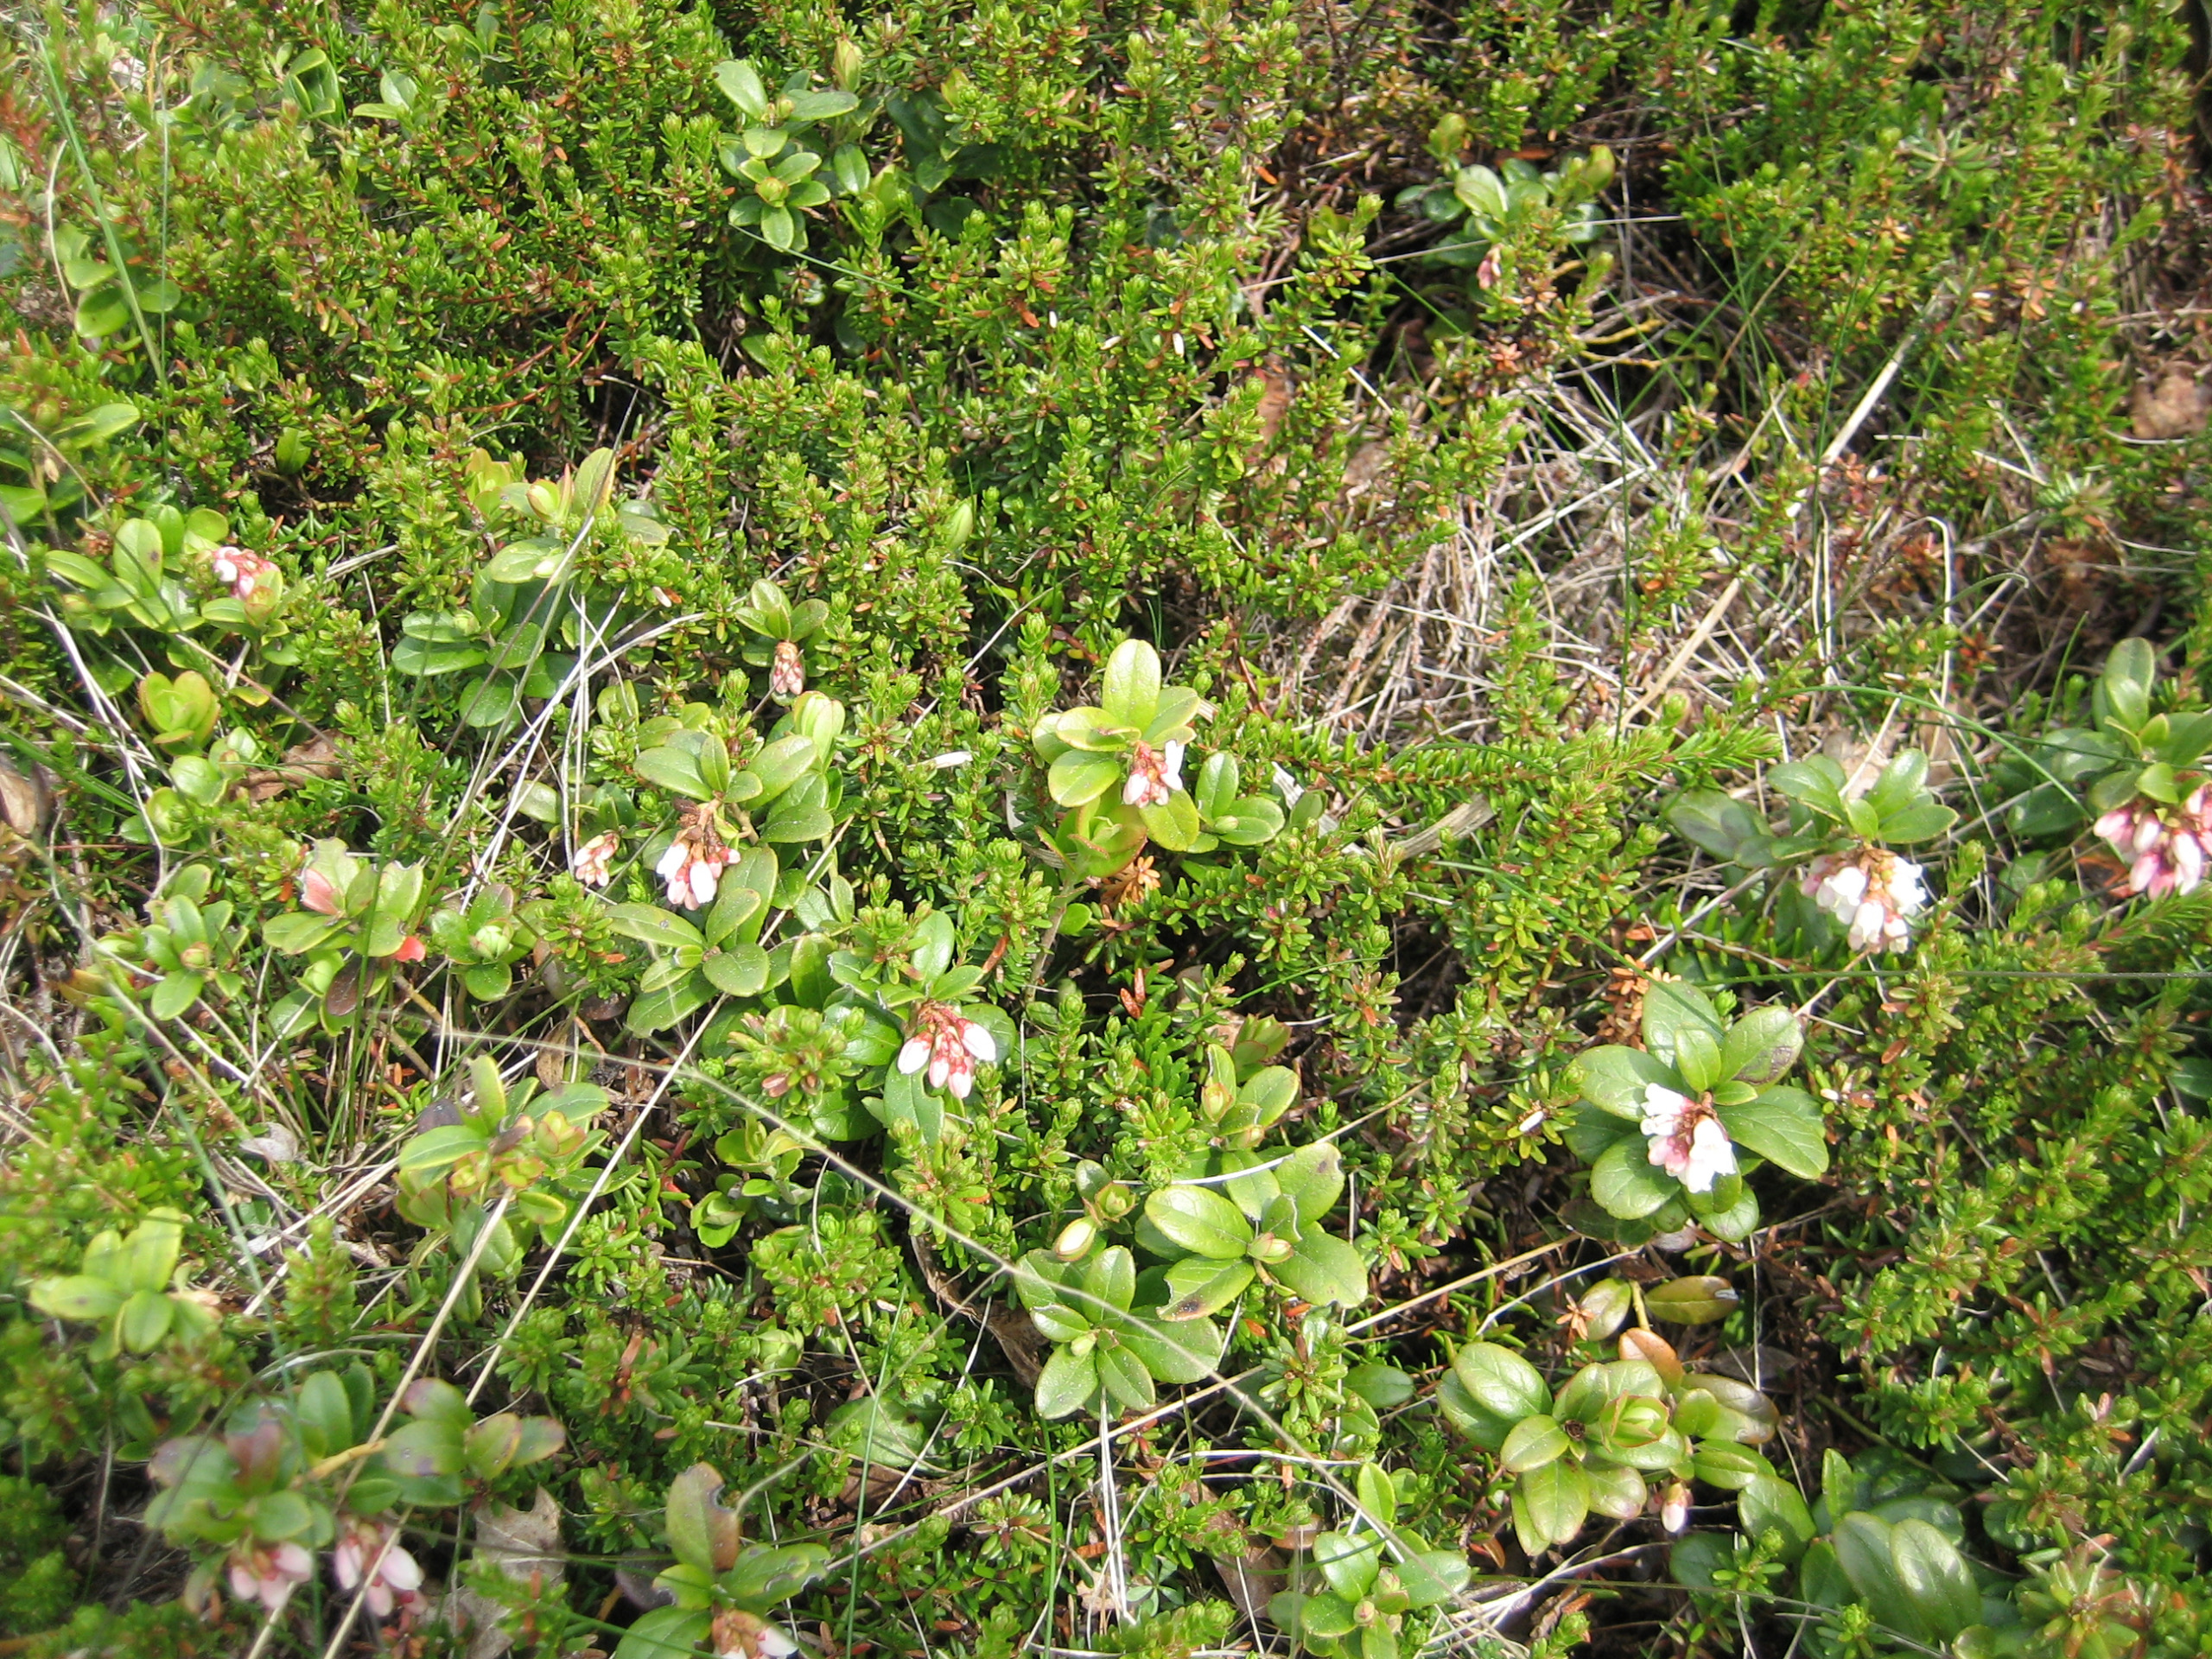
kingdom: Plantae
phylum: Tracheophyta
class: Magnoliopsida
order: Ericales
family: Ericaceae
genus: Vaccinium
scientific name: Vaccinium vitis-idaea
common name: Tyttebær
